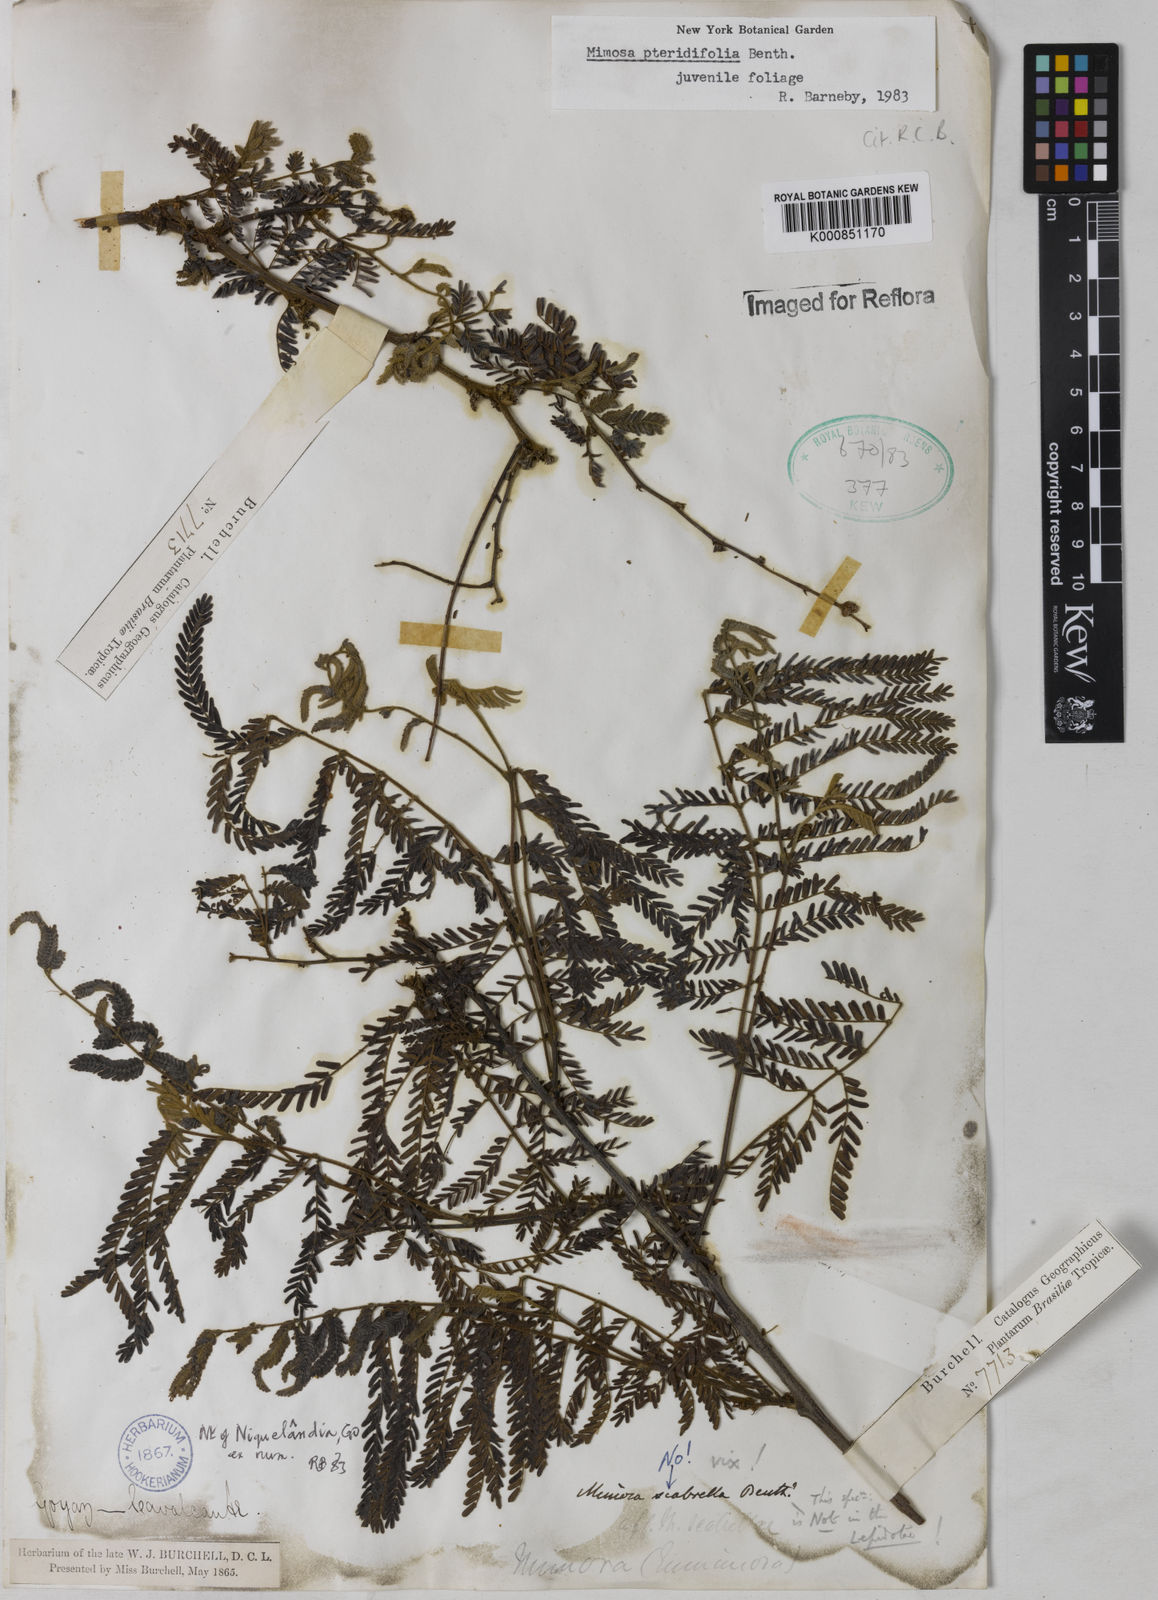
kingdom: Plantae
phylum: Tracheophyta
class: Magnoliopsida
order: Fabales
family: Fabaceae
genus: Mimosa
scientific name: Mimosa pteridifolia
